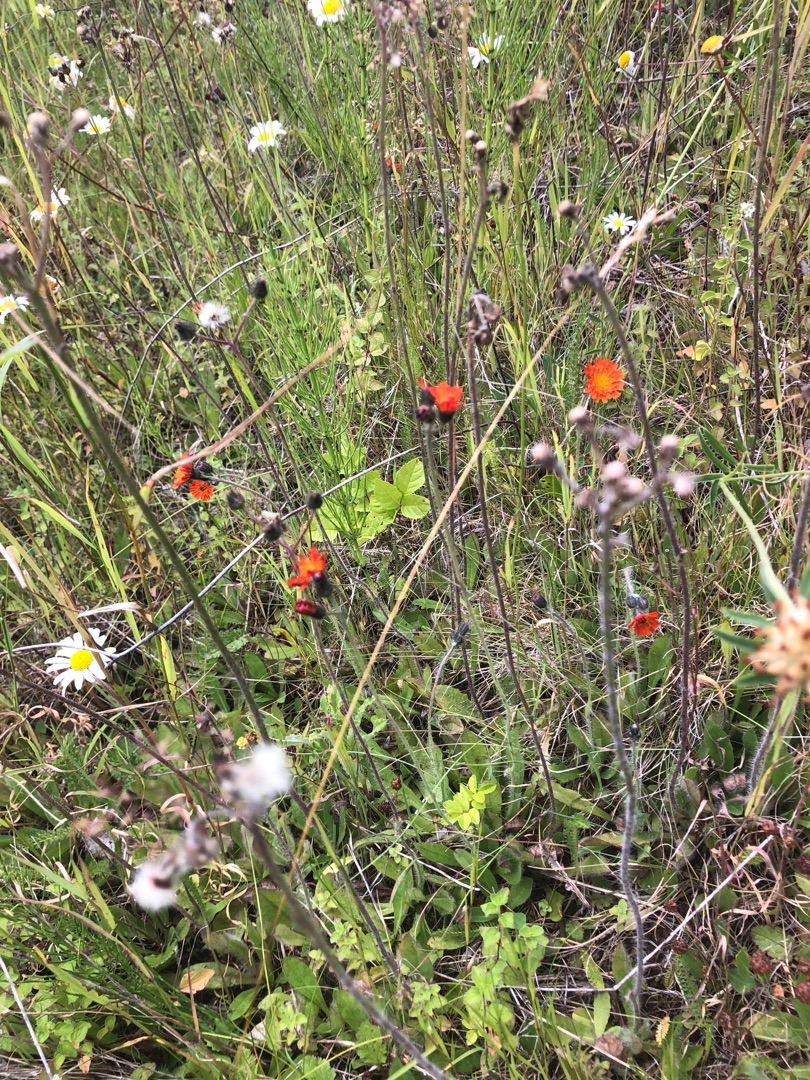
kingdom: Plantae
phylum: Tracheophyta
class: Magnoliopsida
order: Asterales
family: Asteraceae
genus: Pilosella
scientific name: Pilosella aurantiaca
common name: Pomerans-høgeurt
